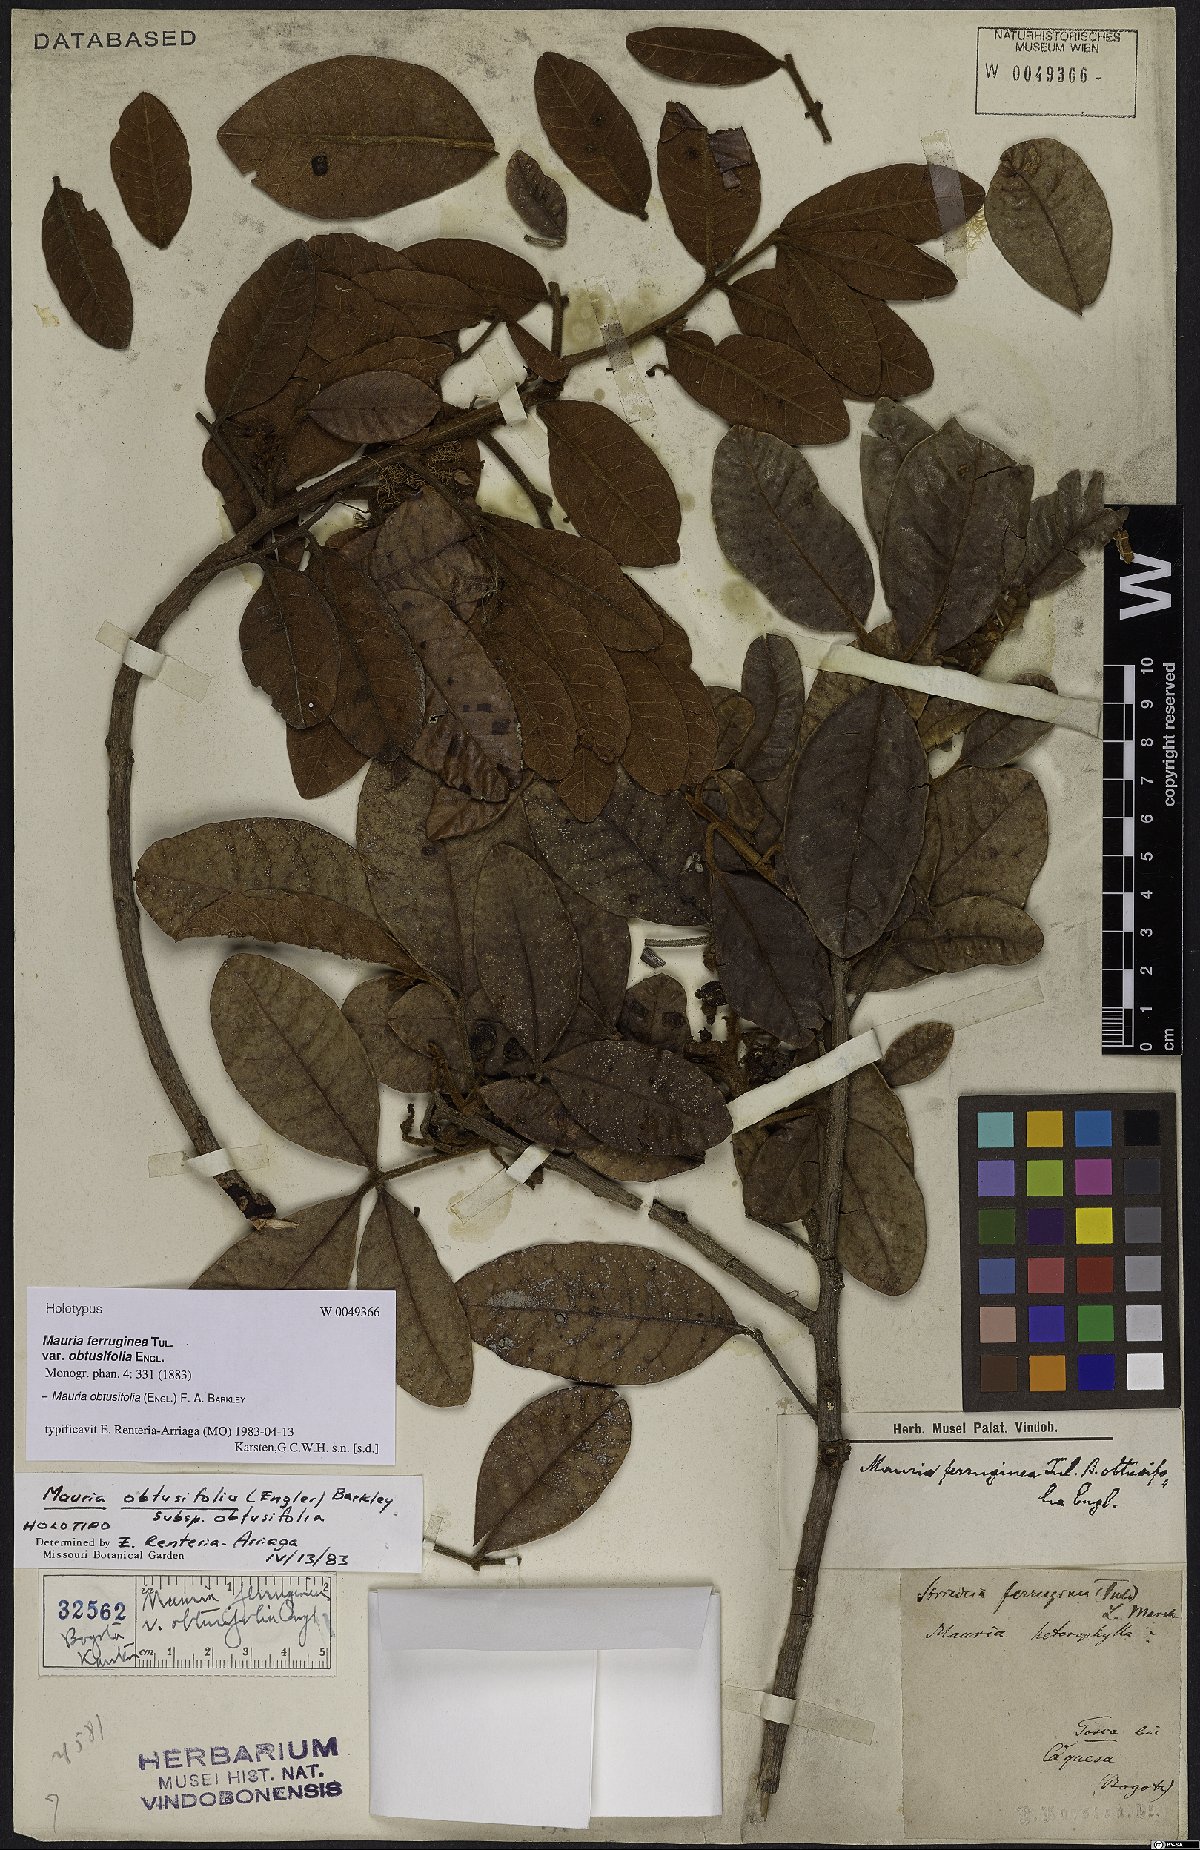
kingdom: Plantae
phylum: Tracheophyta
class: Magnoliopsida
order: Sapindales
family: Anacardiaceae
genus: Mauria
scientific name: Mauria obtusifolia
